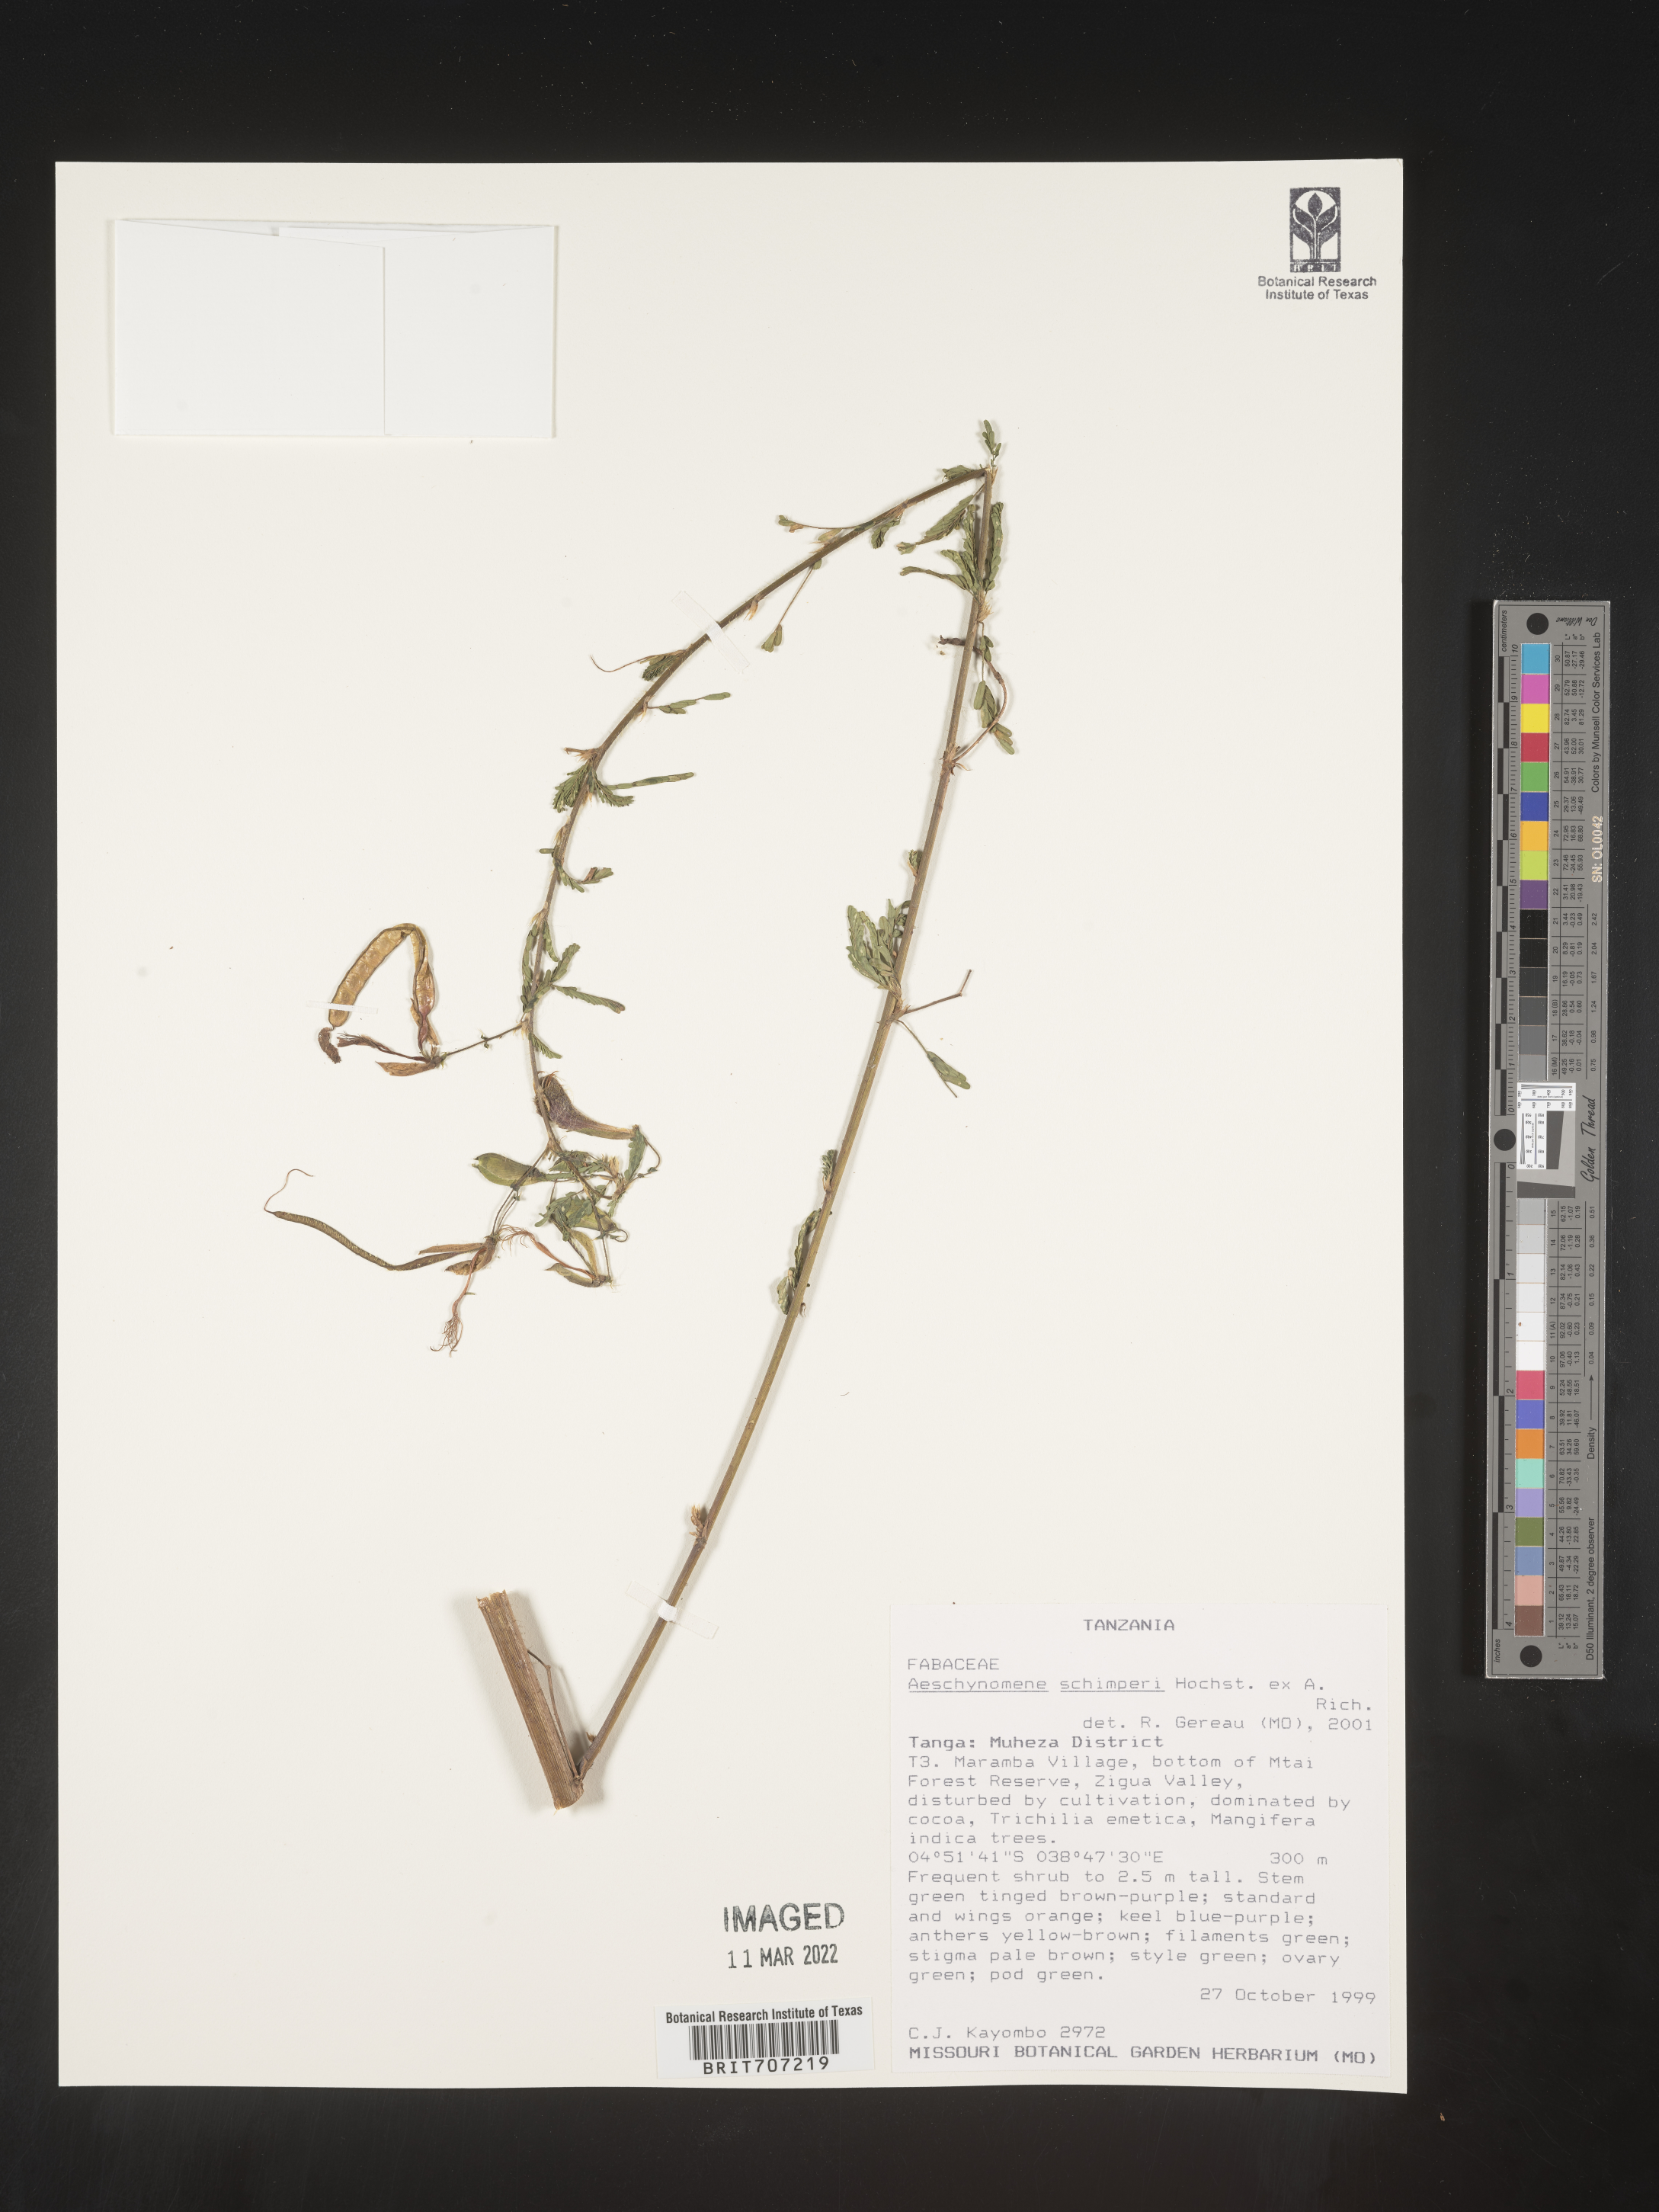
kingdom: Plantae
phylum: Tracheophyta
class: Magnoliopsida
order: Fabales
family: Fabaceae
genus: Aeschynomene
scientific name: Aeschynomene
